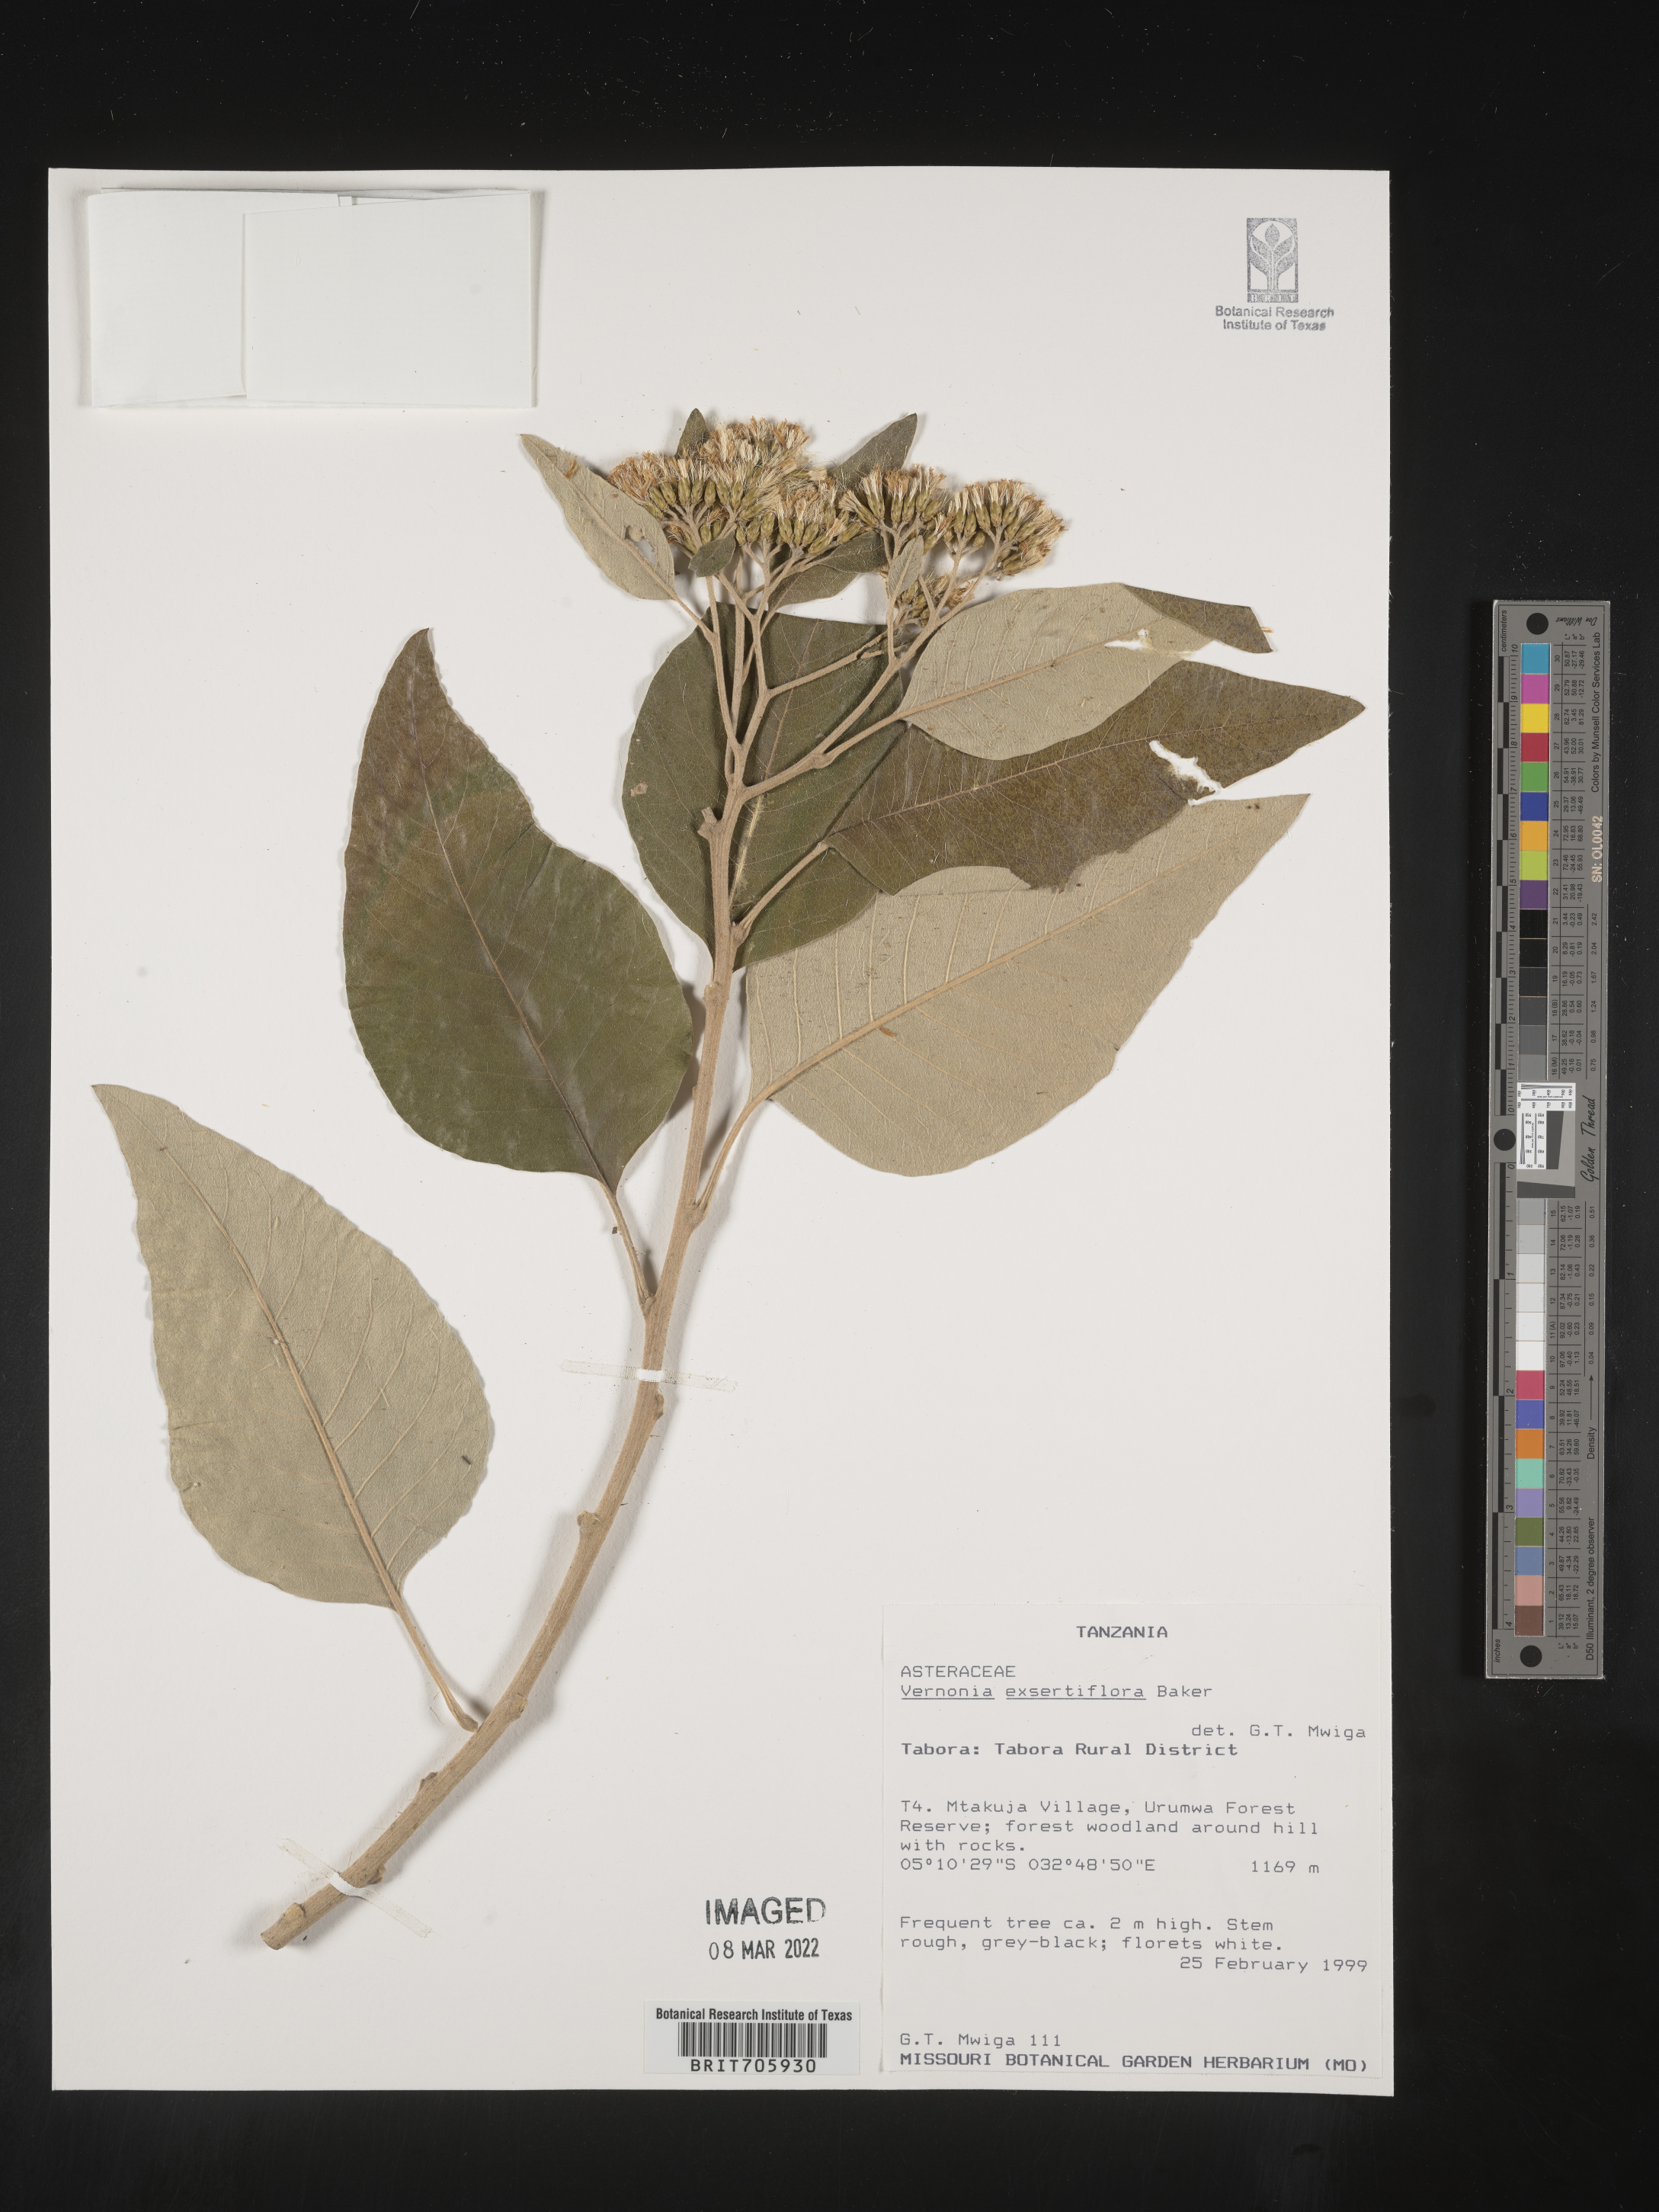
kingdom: Plantae
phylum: Tracheophyta
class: Magnoliopsida
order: Asterales
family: Asteraceae
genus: Vernonia
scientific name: Vernonia
